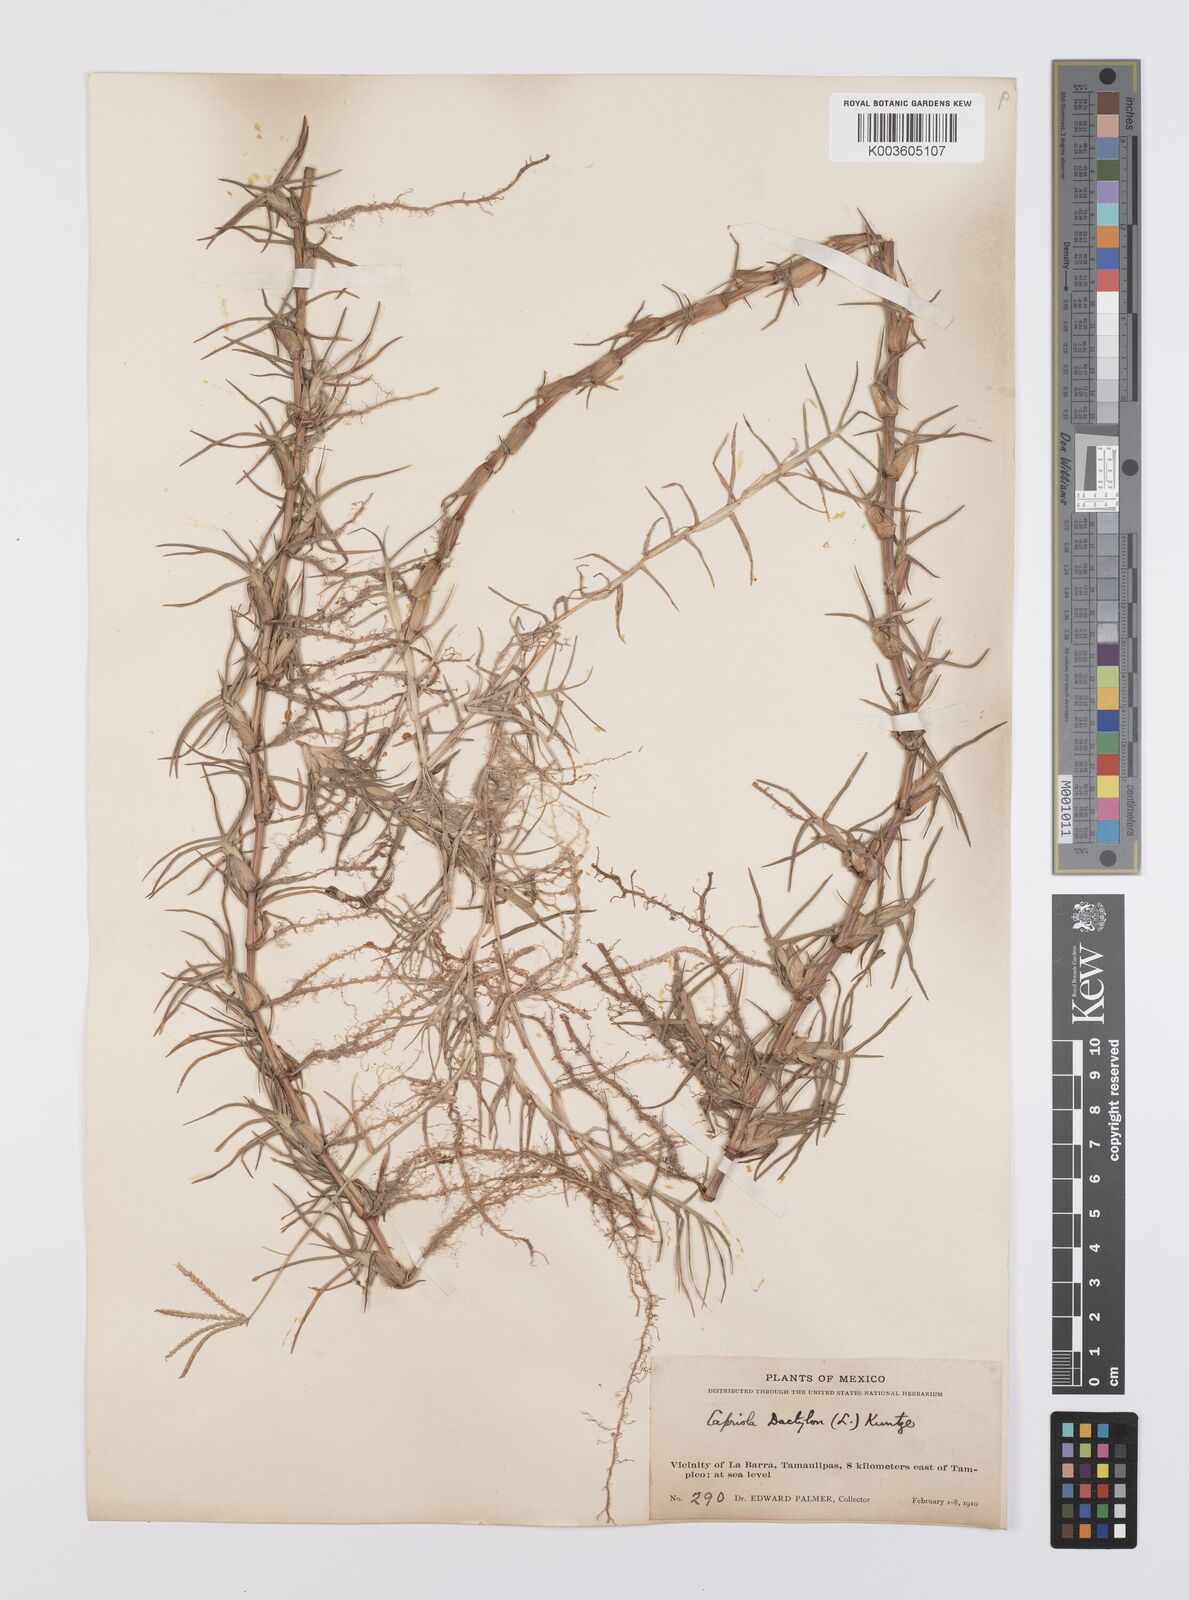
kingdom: Plantae
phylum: Tracheophyta
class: Liliopsida
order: Poales
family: Poaceae
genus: Cynodon
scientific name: Cynodon dactylon
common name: Bermuda grass
